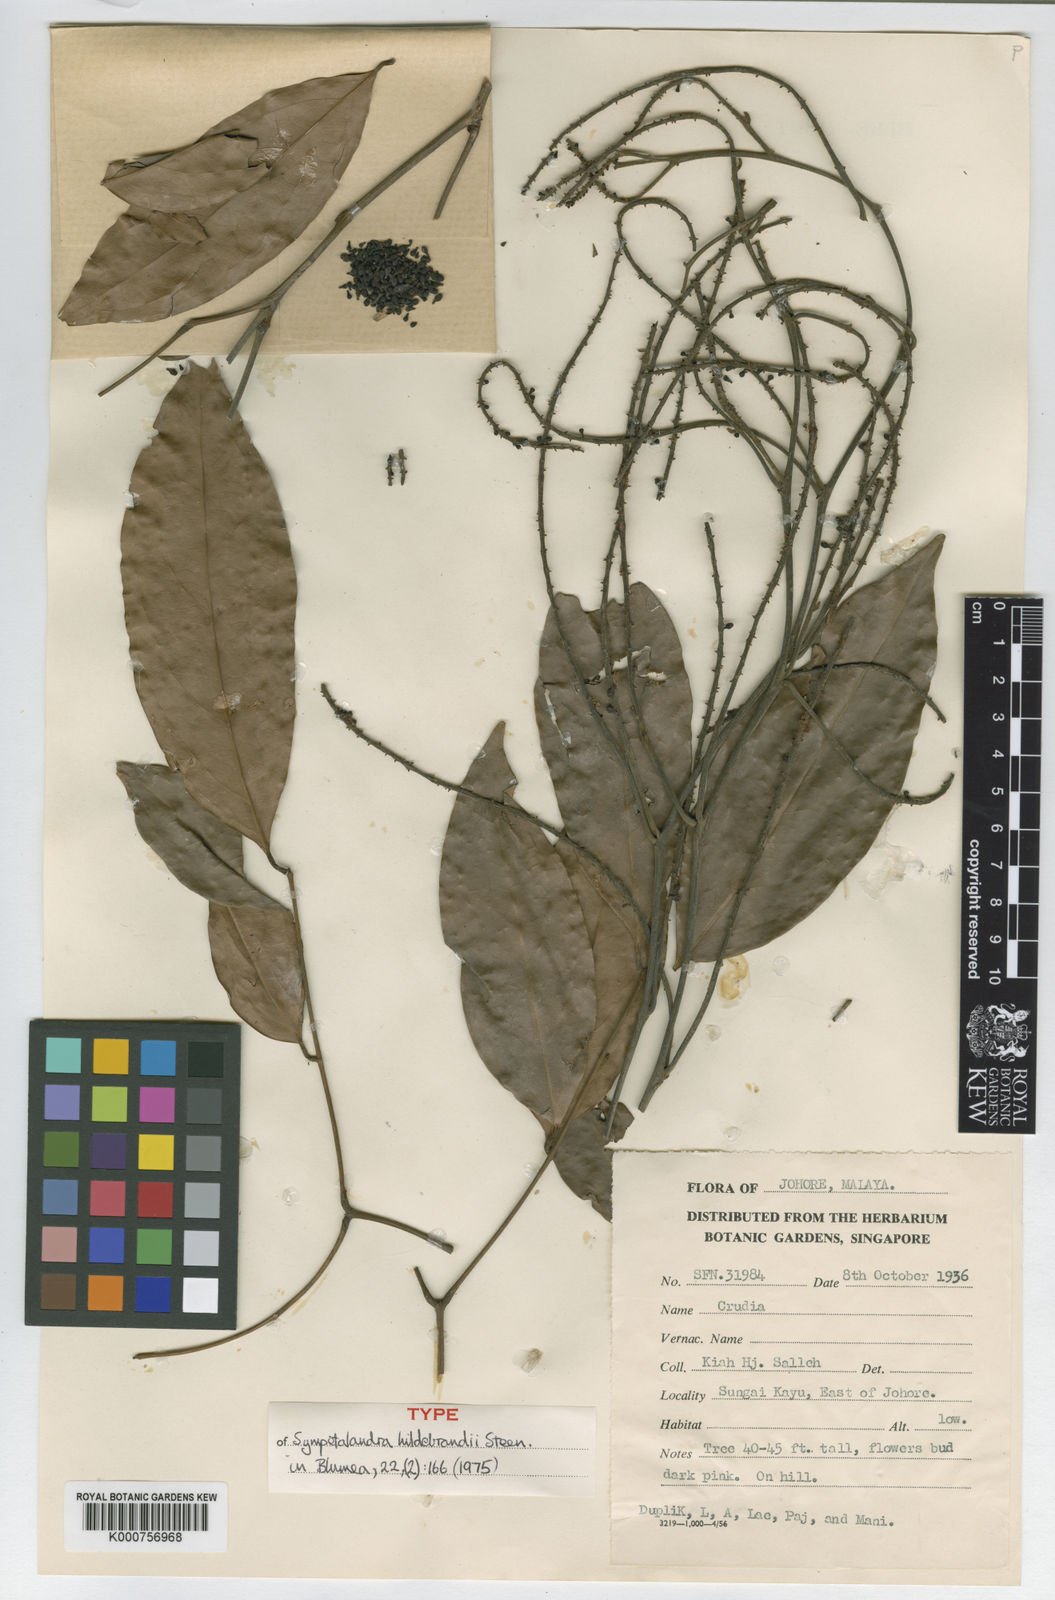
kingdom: Plantae
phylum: Tracheophyta
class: Magnoliopsida
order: Fabales
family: Fabaceae
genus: Sympetalandra
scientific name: Sympetalandra hildebrandii
